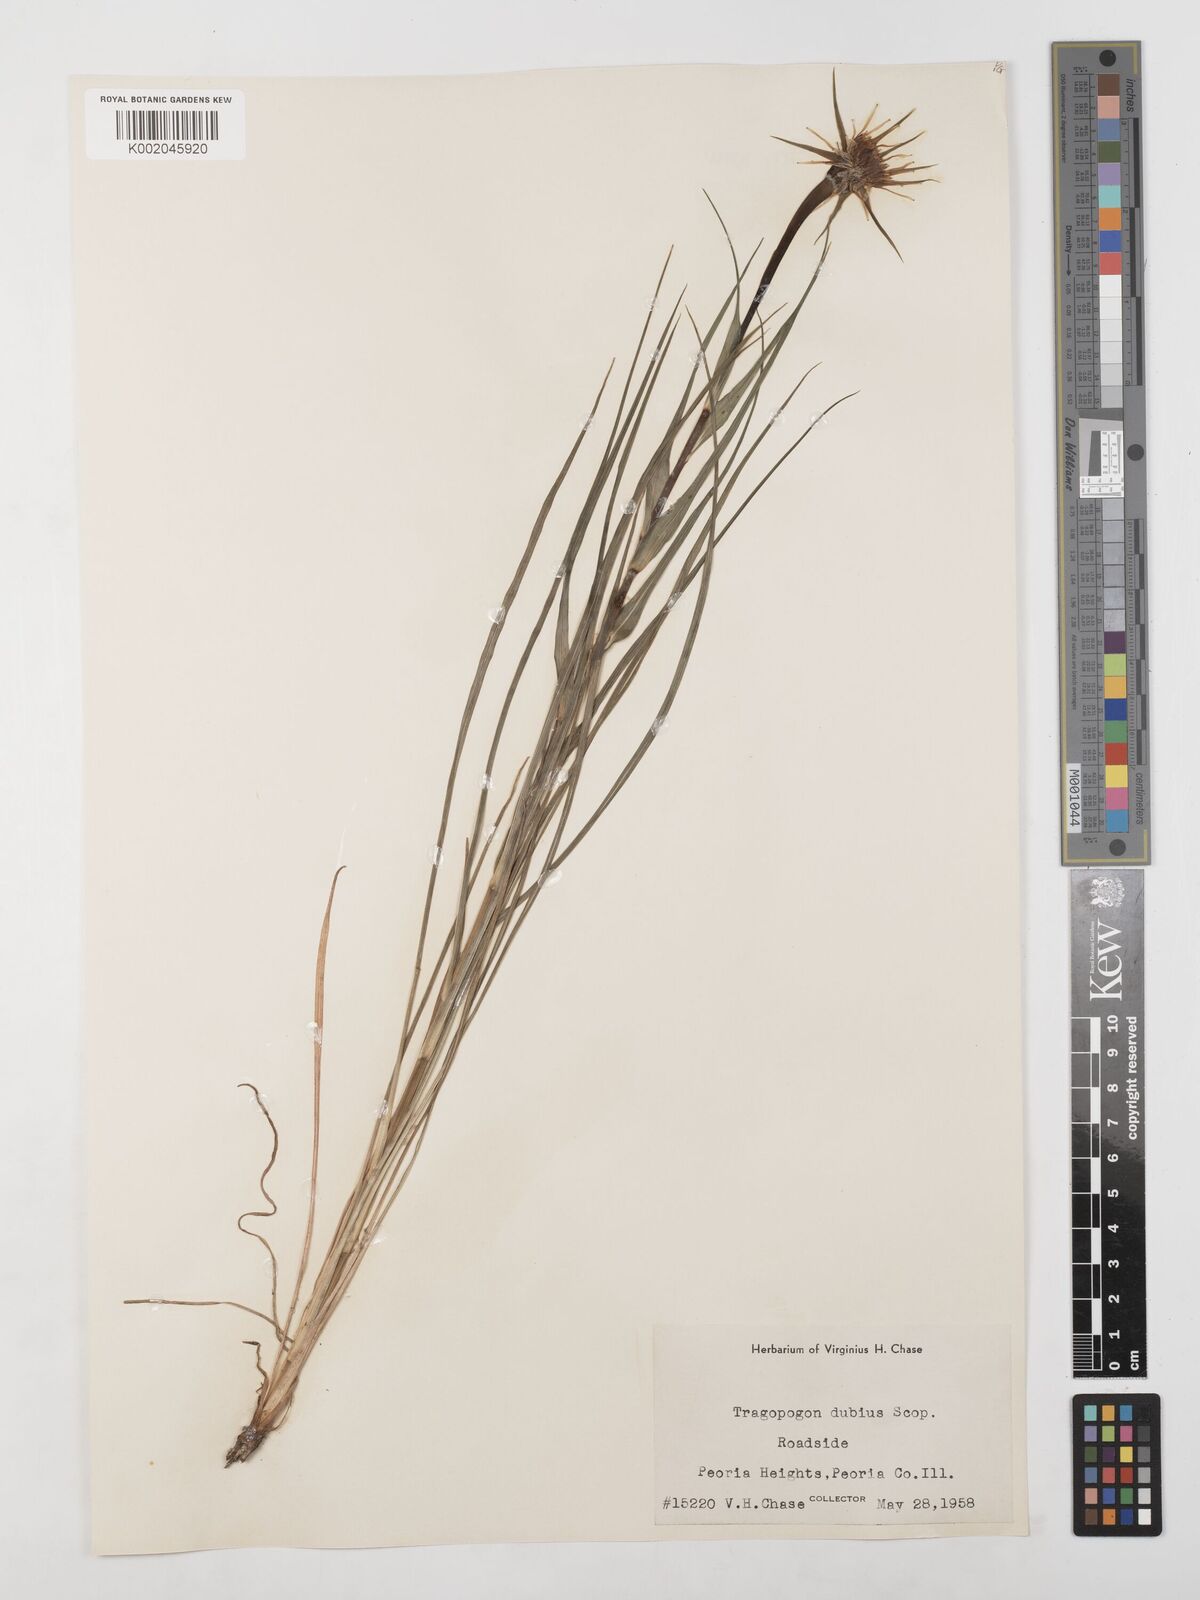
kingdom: Plantae
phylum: Tracheophyta
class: Magnoliopsida
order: Asterales
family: Asteraceae
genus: Tragopogon
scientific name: Tragopogon dubius
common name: Yellow salsify
